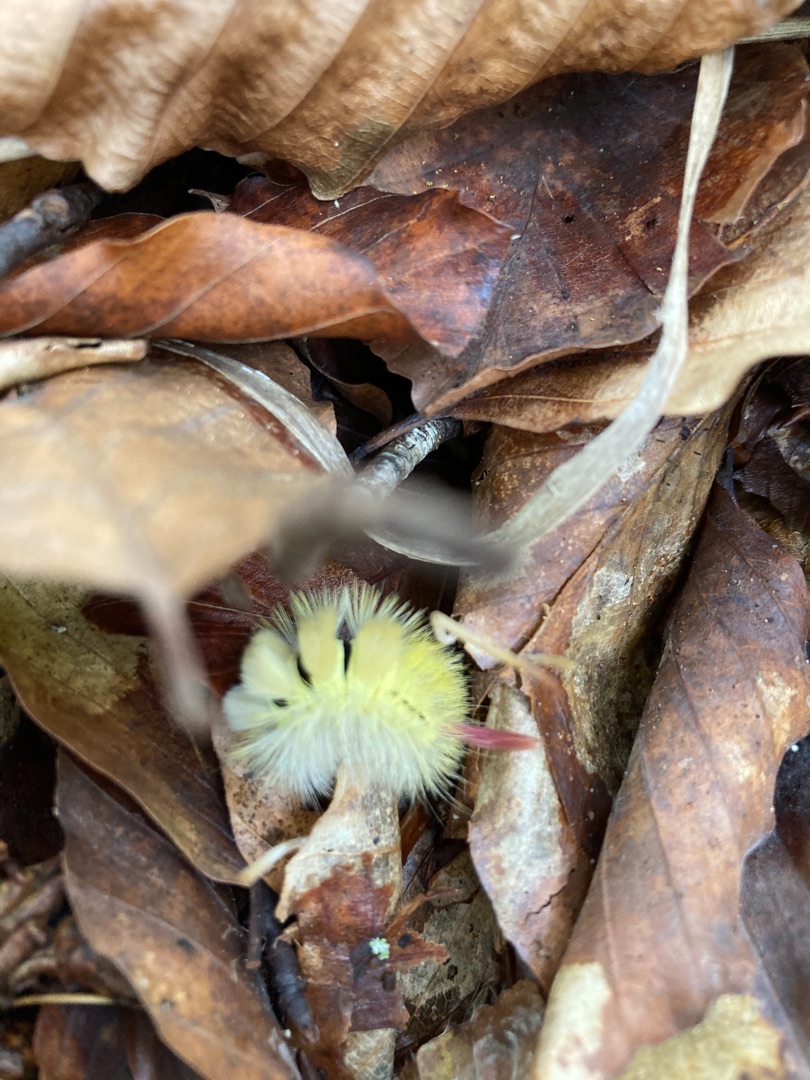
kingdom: Animalia
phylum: Arthropoda
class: Insecta
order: Lepidoptera
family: Erebidae
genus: Calliteara
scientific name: Calliteara pudibunda
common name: Bøgenonne
